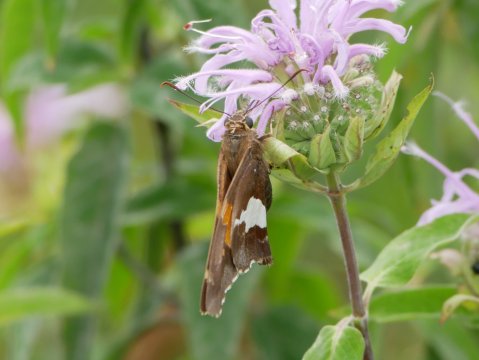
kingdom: Animalia
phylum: Arthropoda
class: Insecta
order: Lepidoptera
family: Hesperiidae
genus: Epargyreus
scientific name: Epargyreus clarus
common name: Silver-spotted Skipper
